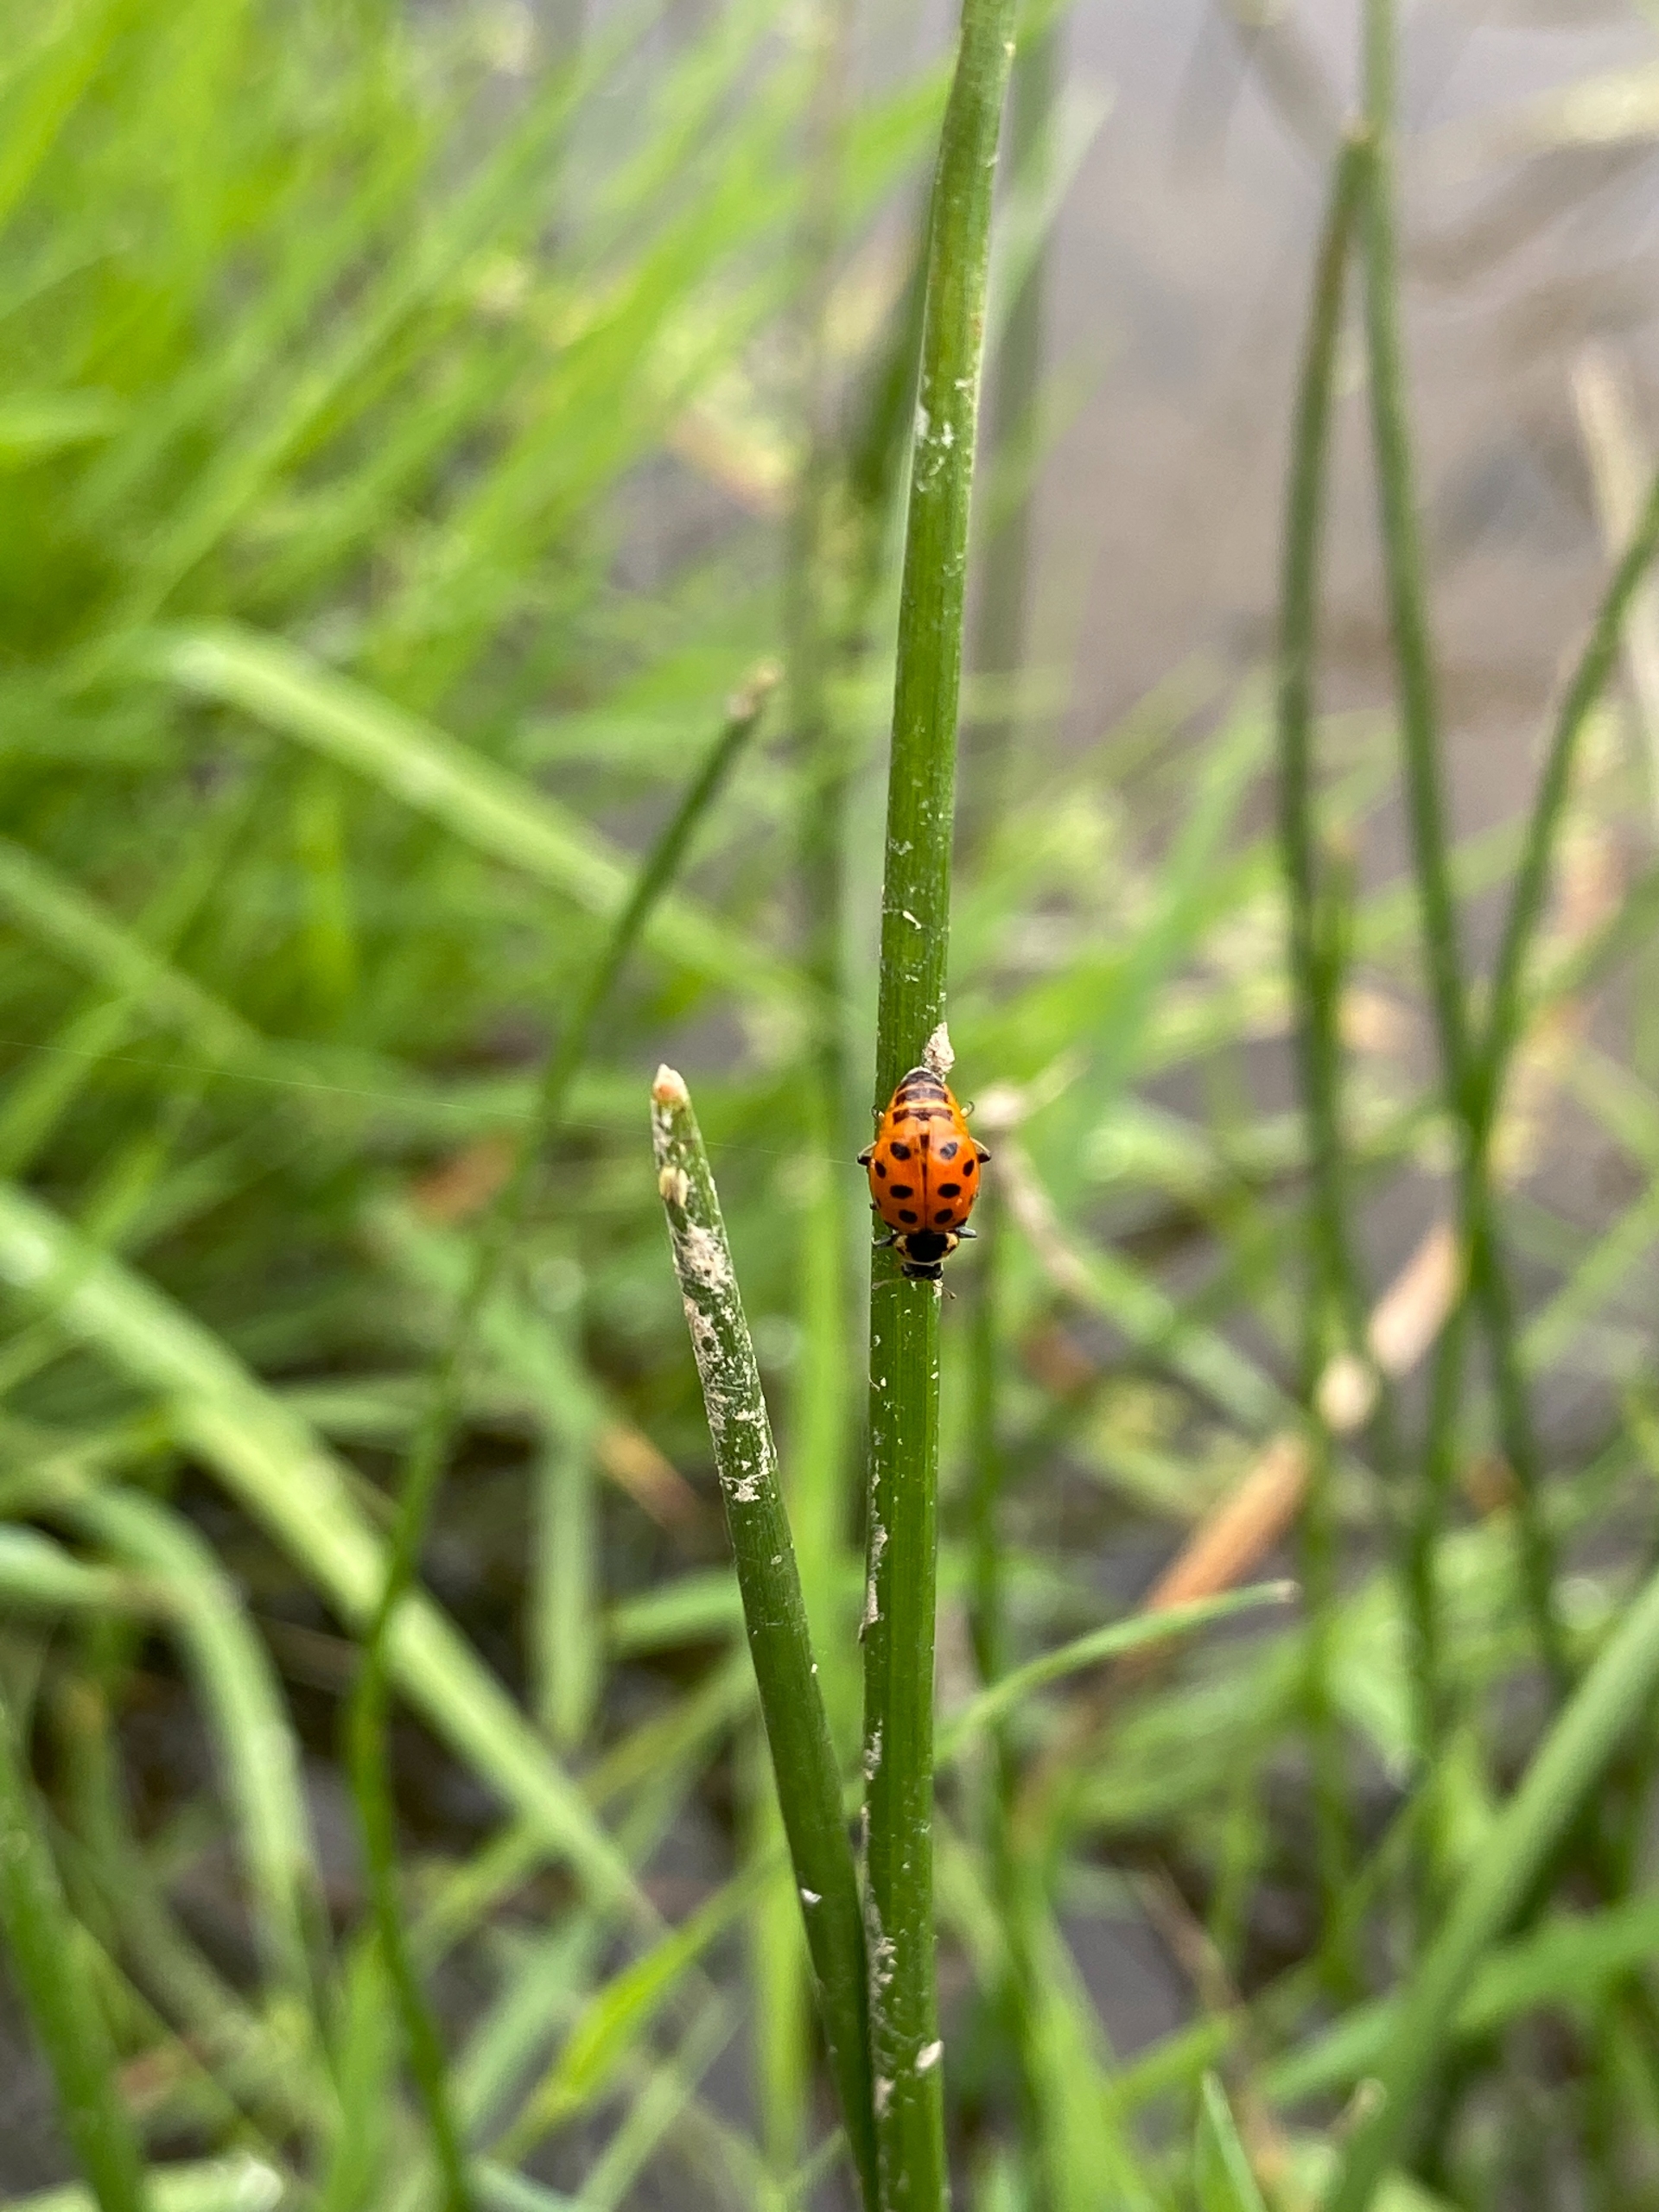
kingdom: Animalia
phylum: Arthropoda
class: Insecta
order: Coleoptera
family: Coccinellidae
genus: Hippodamia
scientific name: Hippodamia tredecimpunctata
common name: Trettenplettet mariehøne
